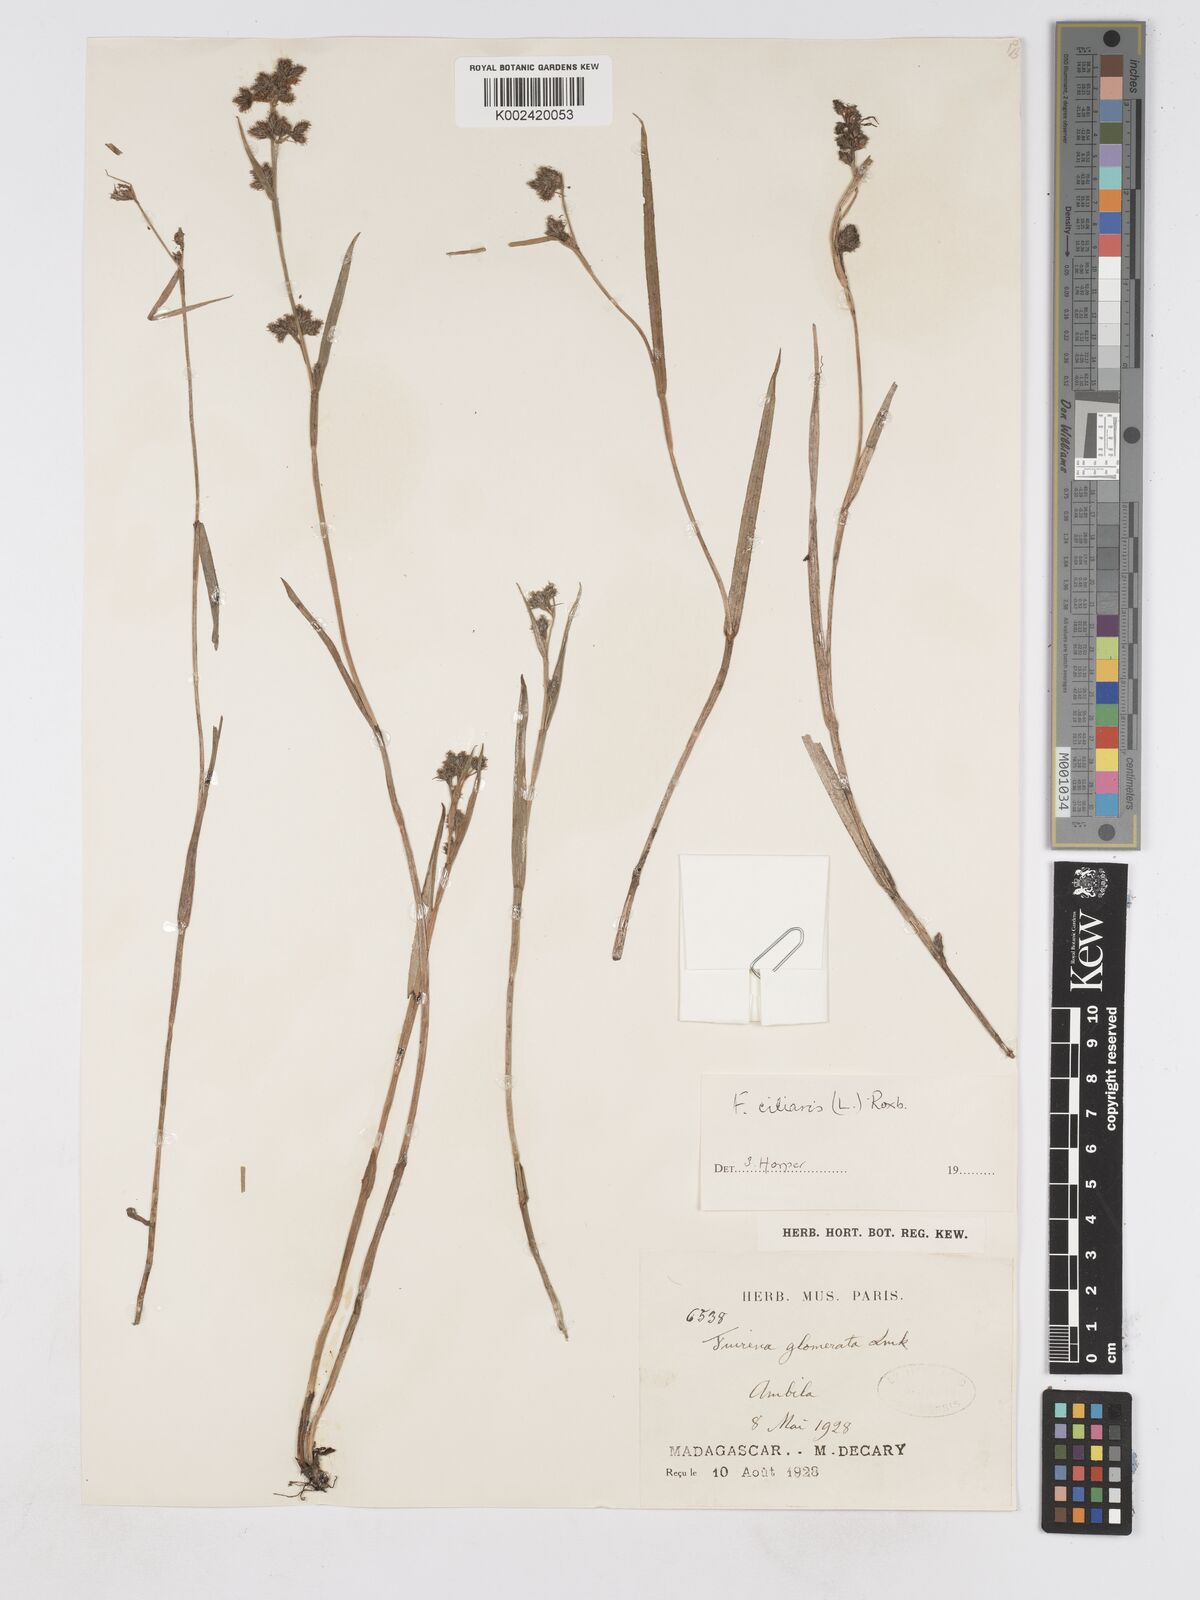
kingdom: Plantae
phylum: Tracheophyta
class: Liliopsida
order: Poales
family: Cyperaceae
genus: Fuirena
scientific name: Fuirena ciliaris
